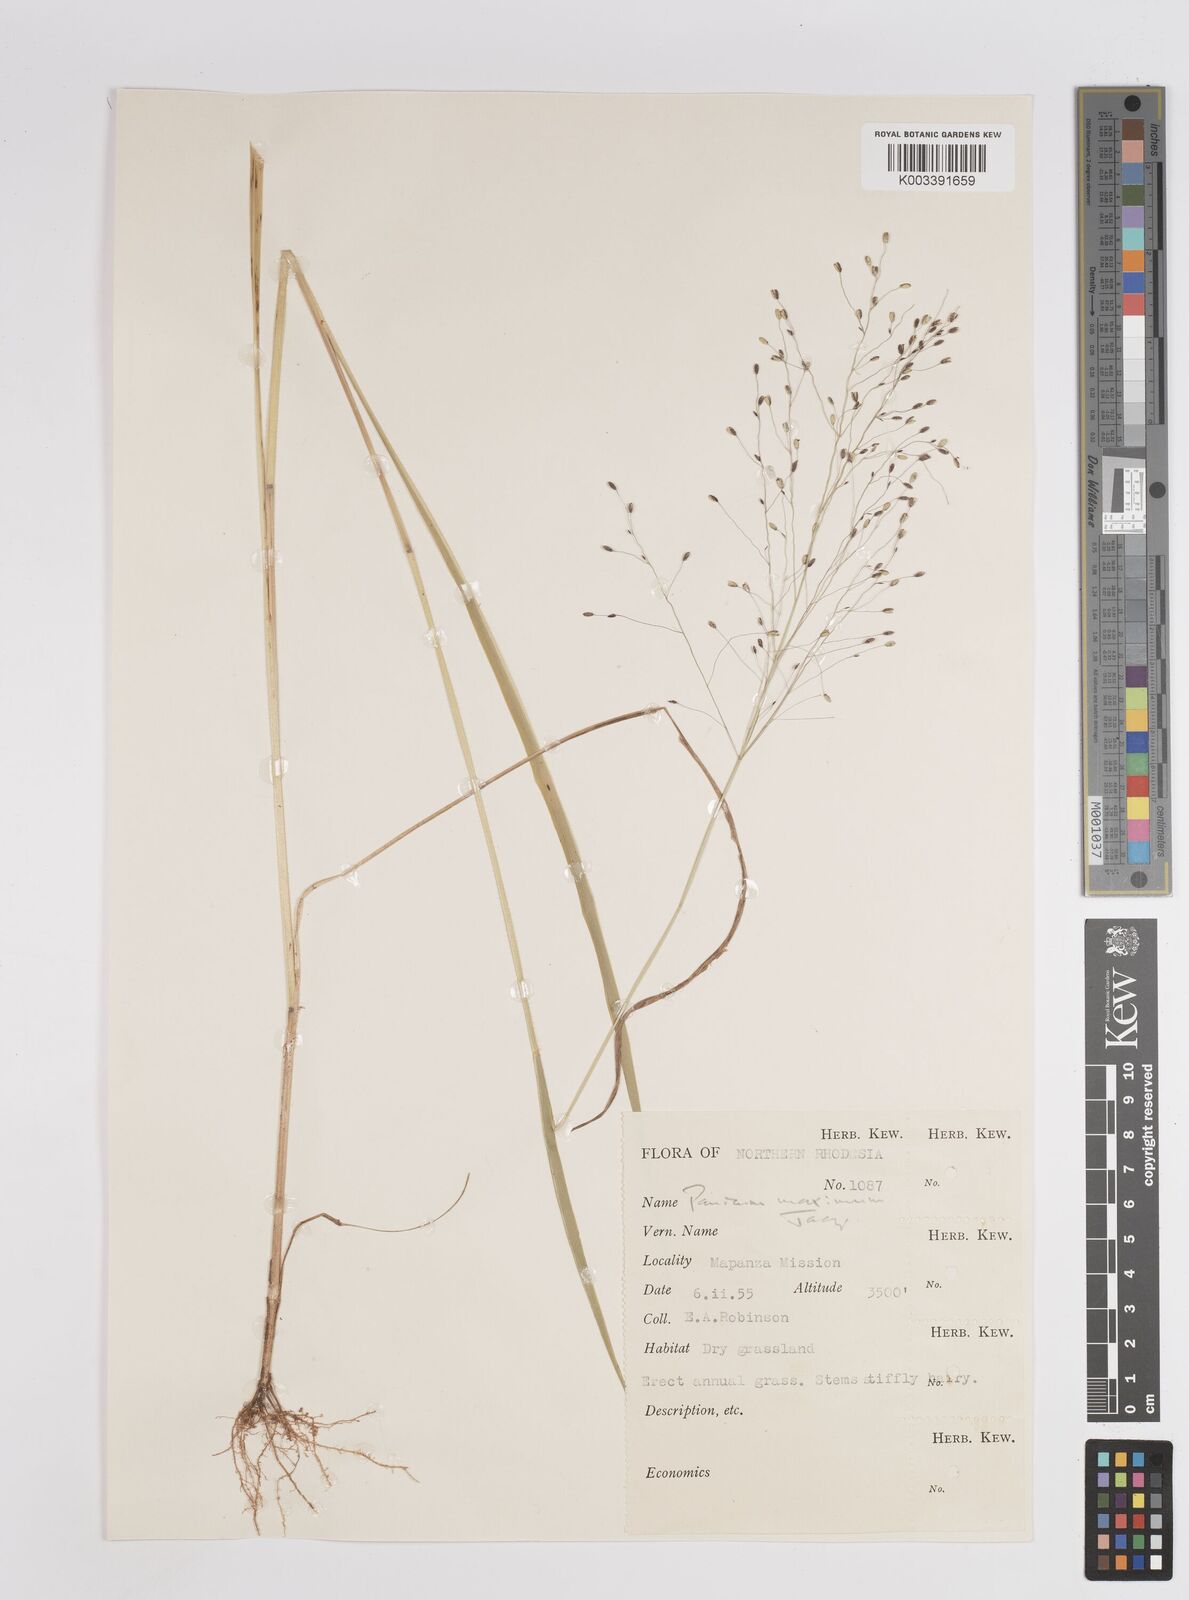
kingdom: Plantae
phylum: Tracheophyta
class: Liliopsida
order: Poales
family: Poaceae
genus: Megathyrsus
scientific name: Megathyrsus maximus
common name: Guineagrass
